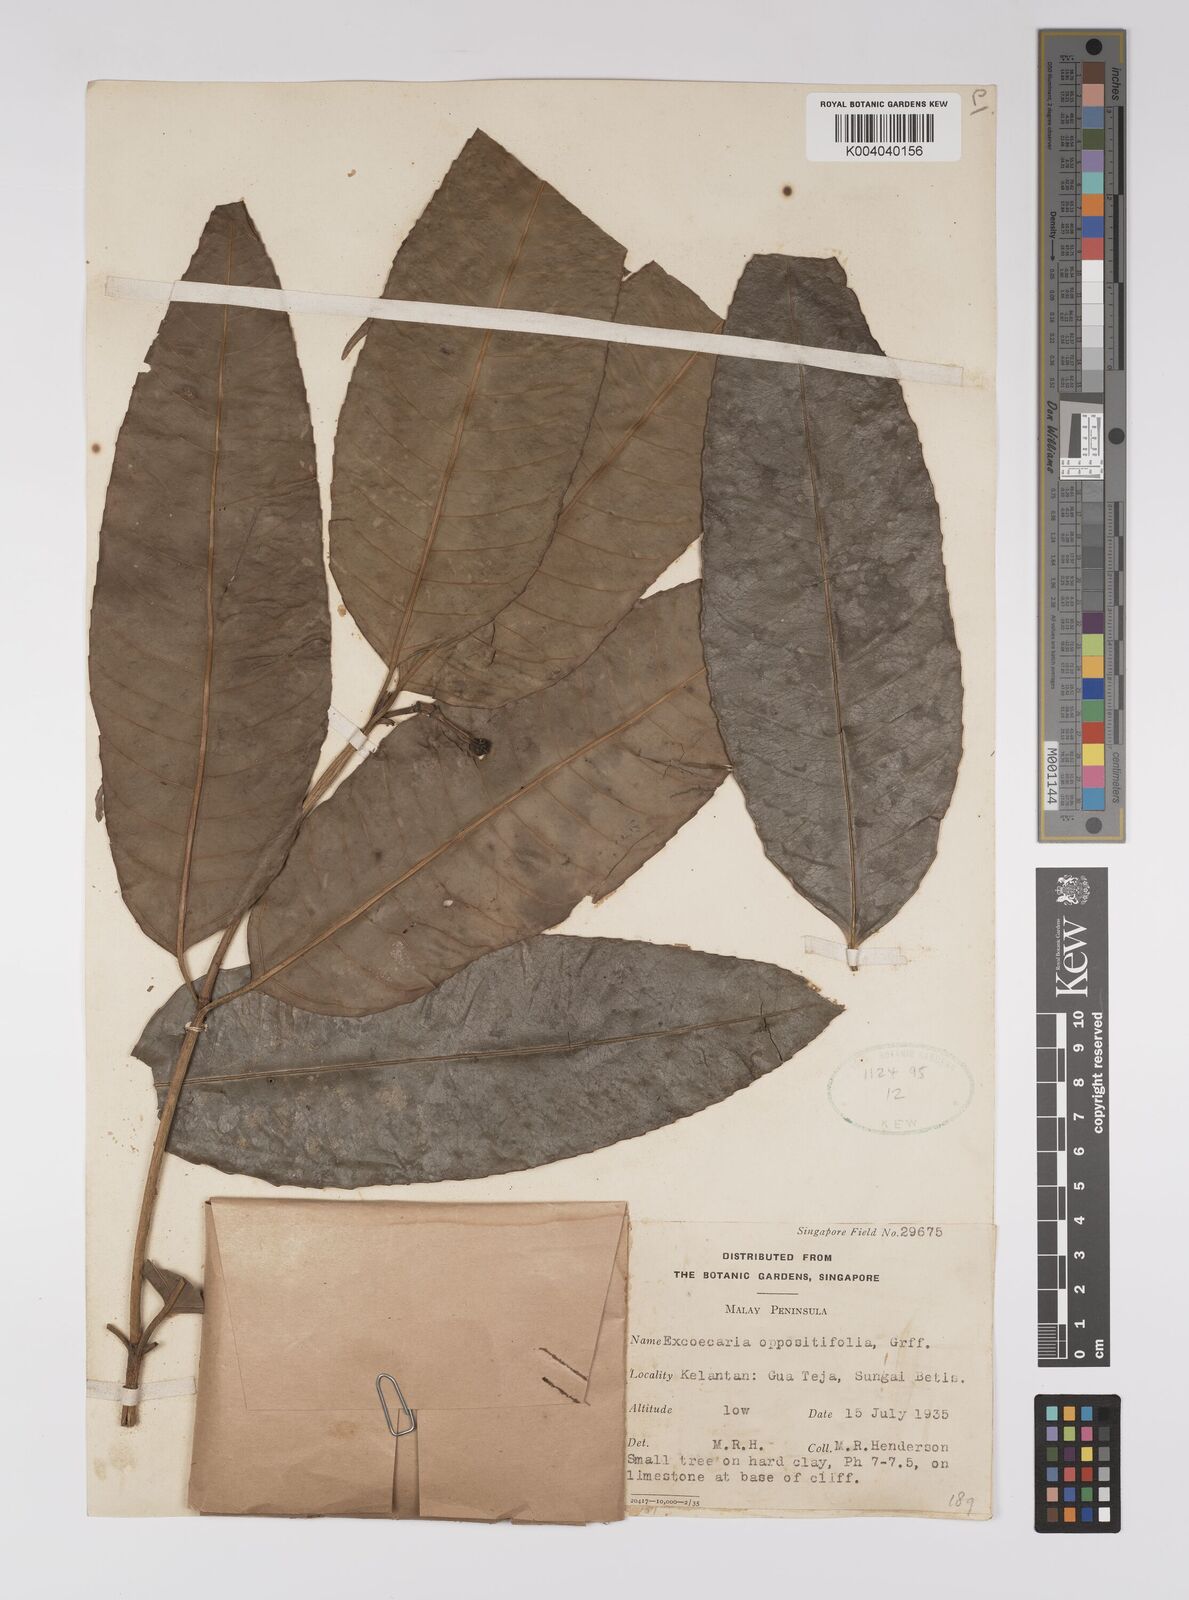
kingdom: Plantae
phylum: Tracheophyta
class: Magnoliopsida
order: Malpighiales
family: Euphorbiaceae
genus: Excoecaria
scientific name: Excoecaria oppositifolia
